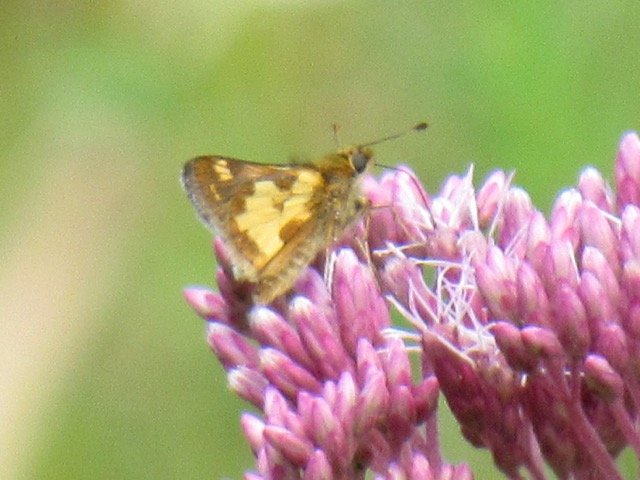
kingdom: Animalia
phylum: Arthropoda
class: Insecta
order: Lepidoptera
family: Hesperiidae
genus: Polites
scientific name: Polites coras
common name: Peck's Skipper
